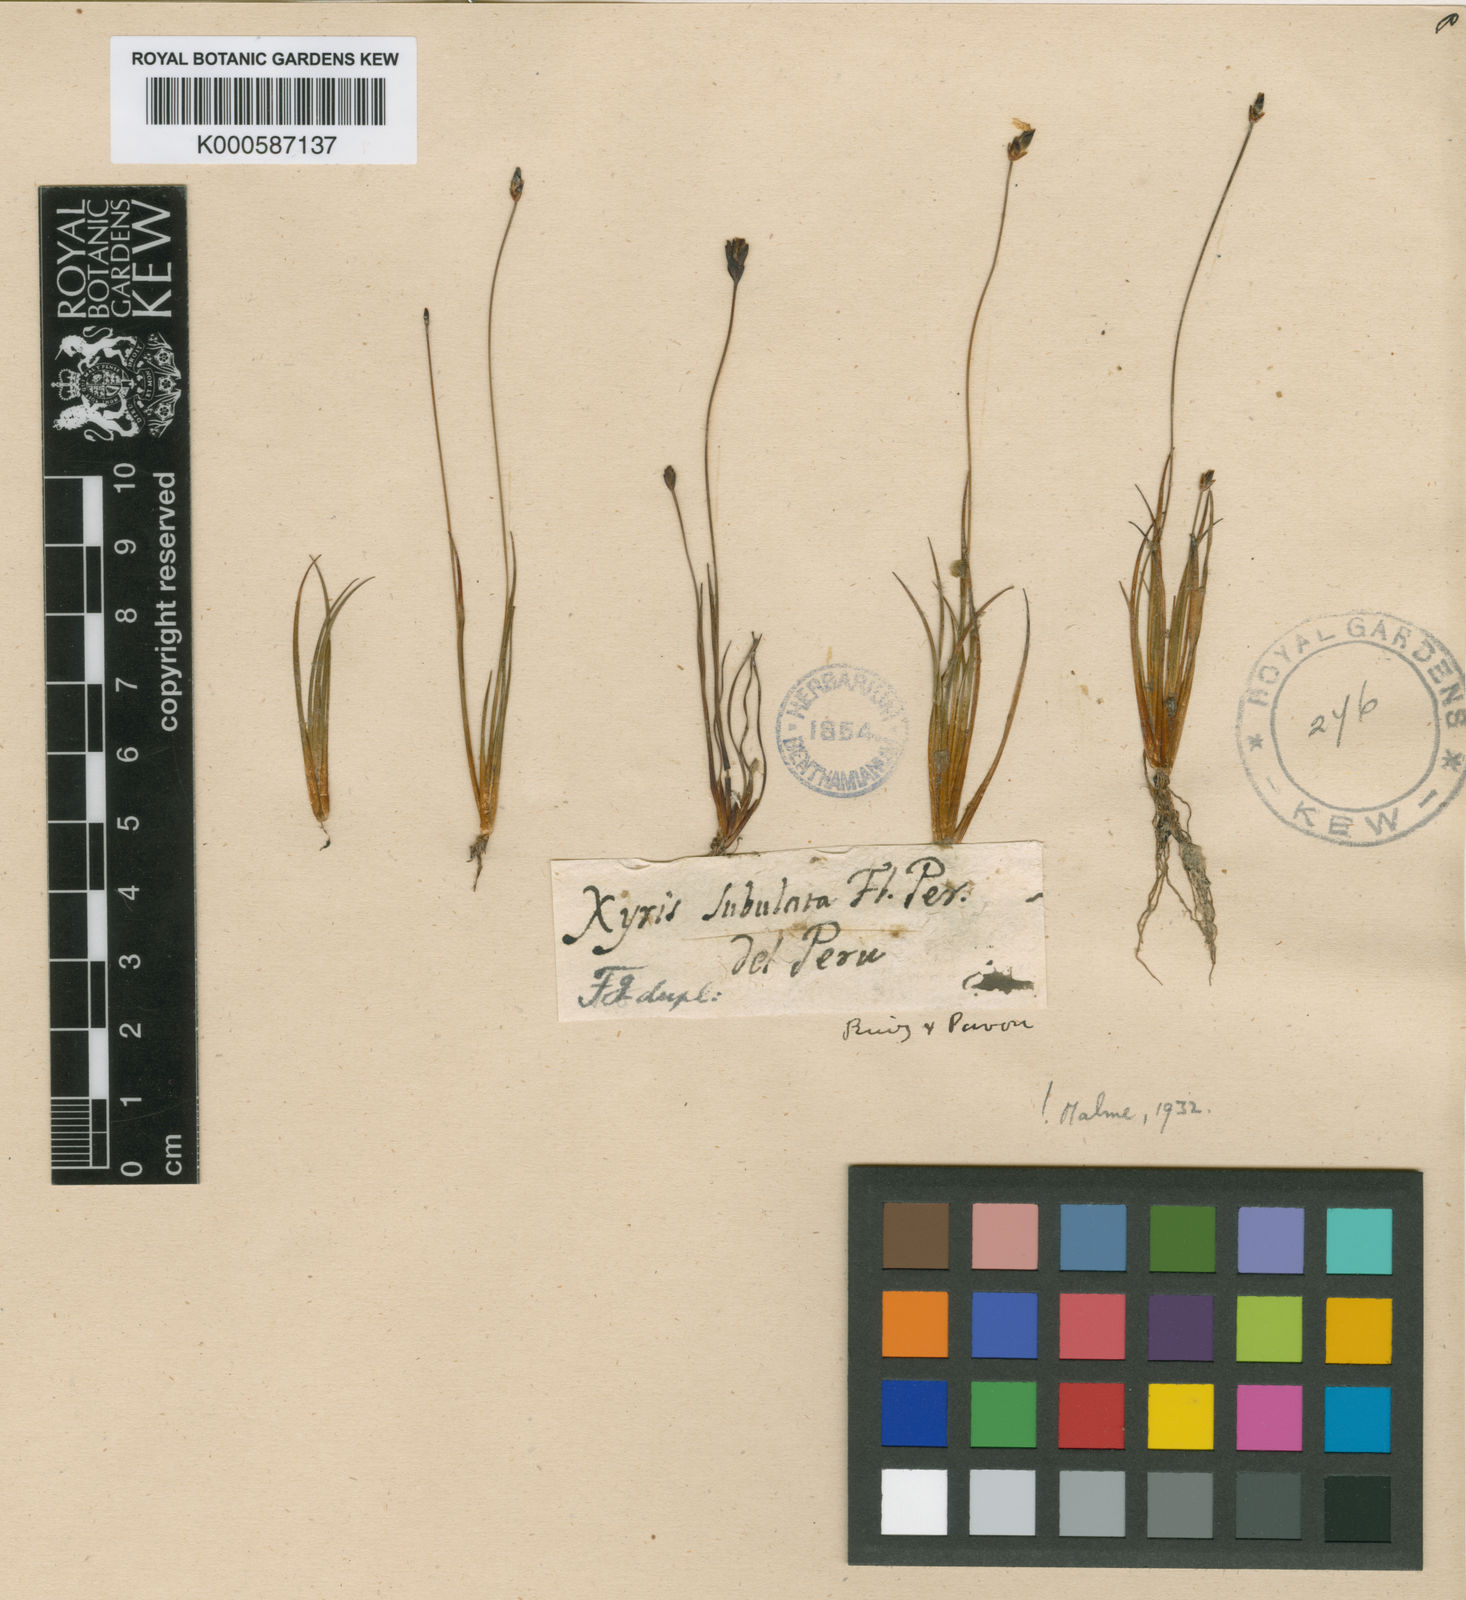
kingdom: Plantae
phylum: Tracheophyta
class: Liliopsida
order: Poales
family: Xyridaceae
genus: Xyris
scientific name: Xyris subulata
